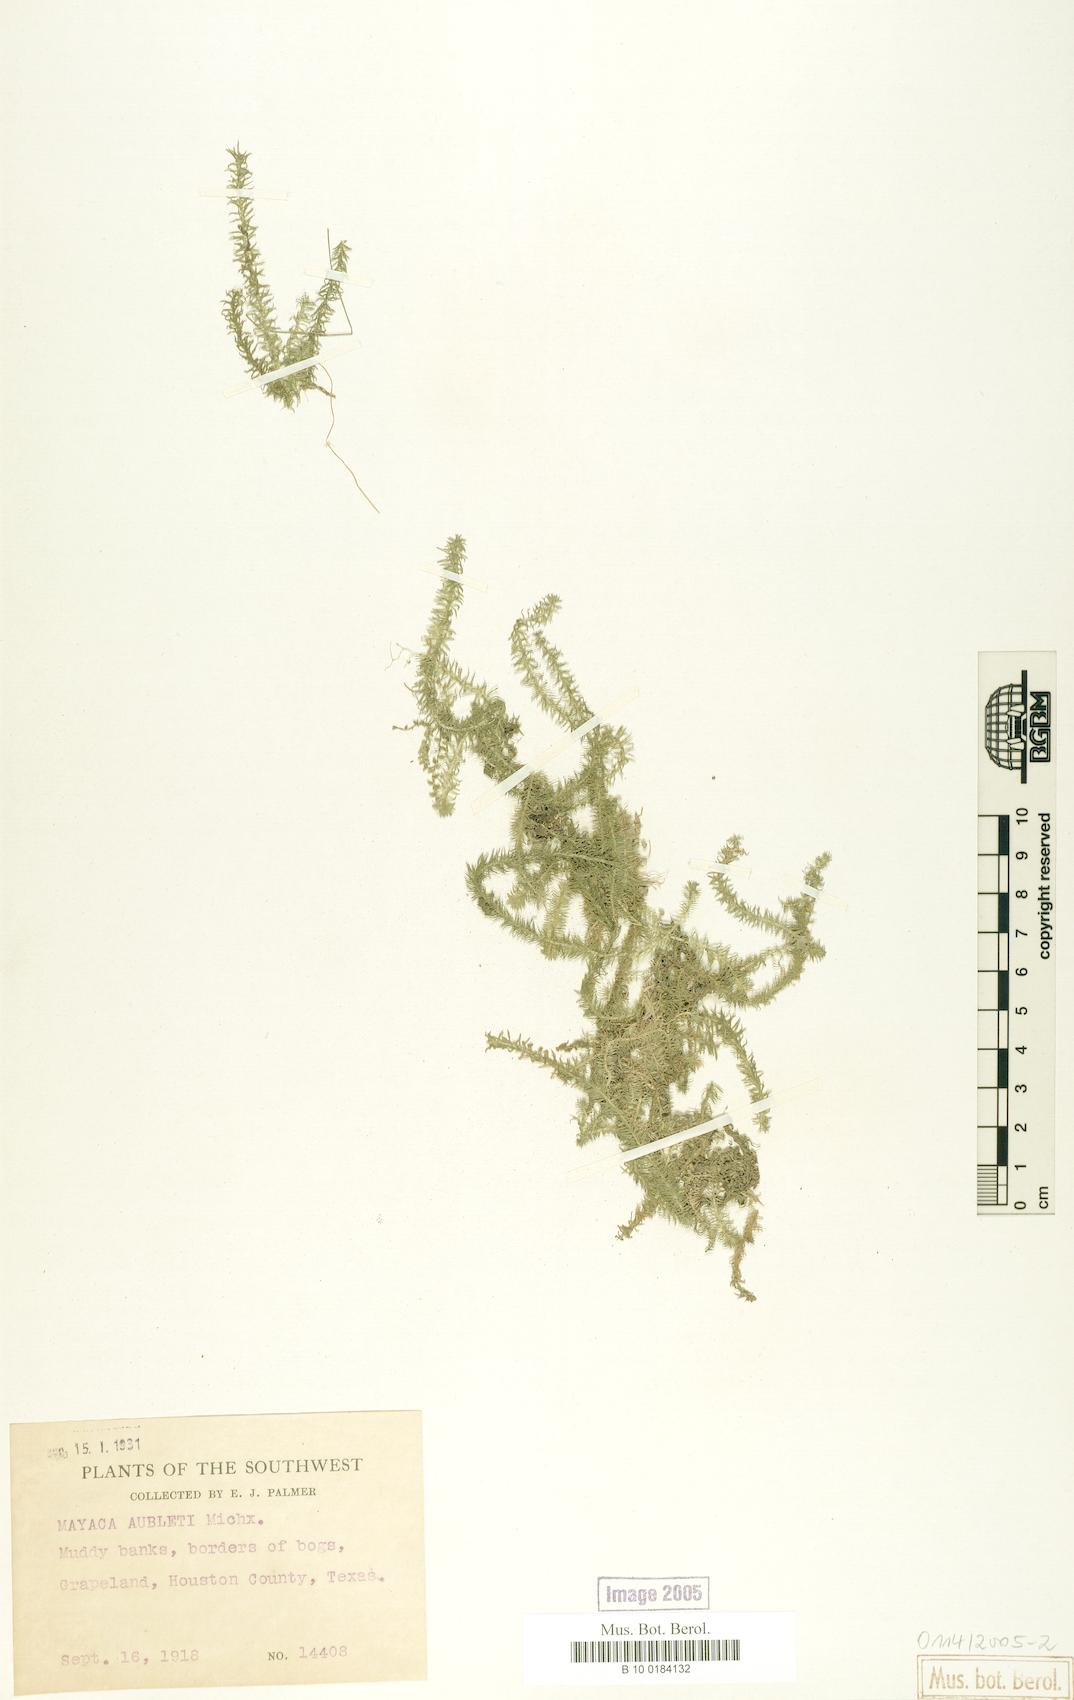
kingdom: Plantae
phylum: Tracheophyta
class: Liliopsida
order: Poales
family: Mayacaceae
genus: Mayaca
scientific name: Mayaca fluviatilis
